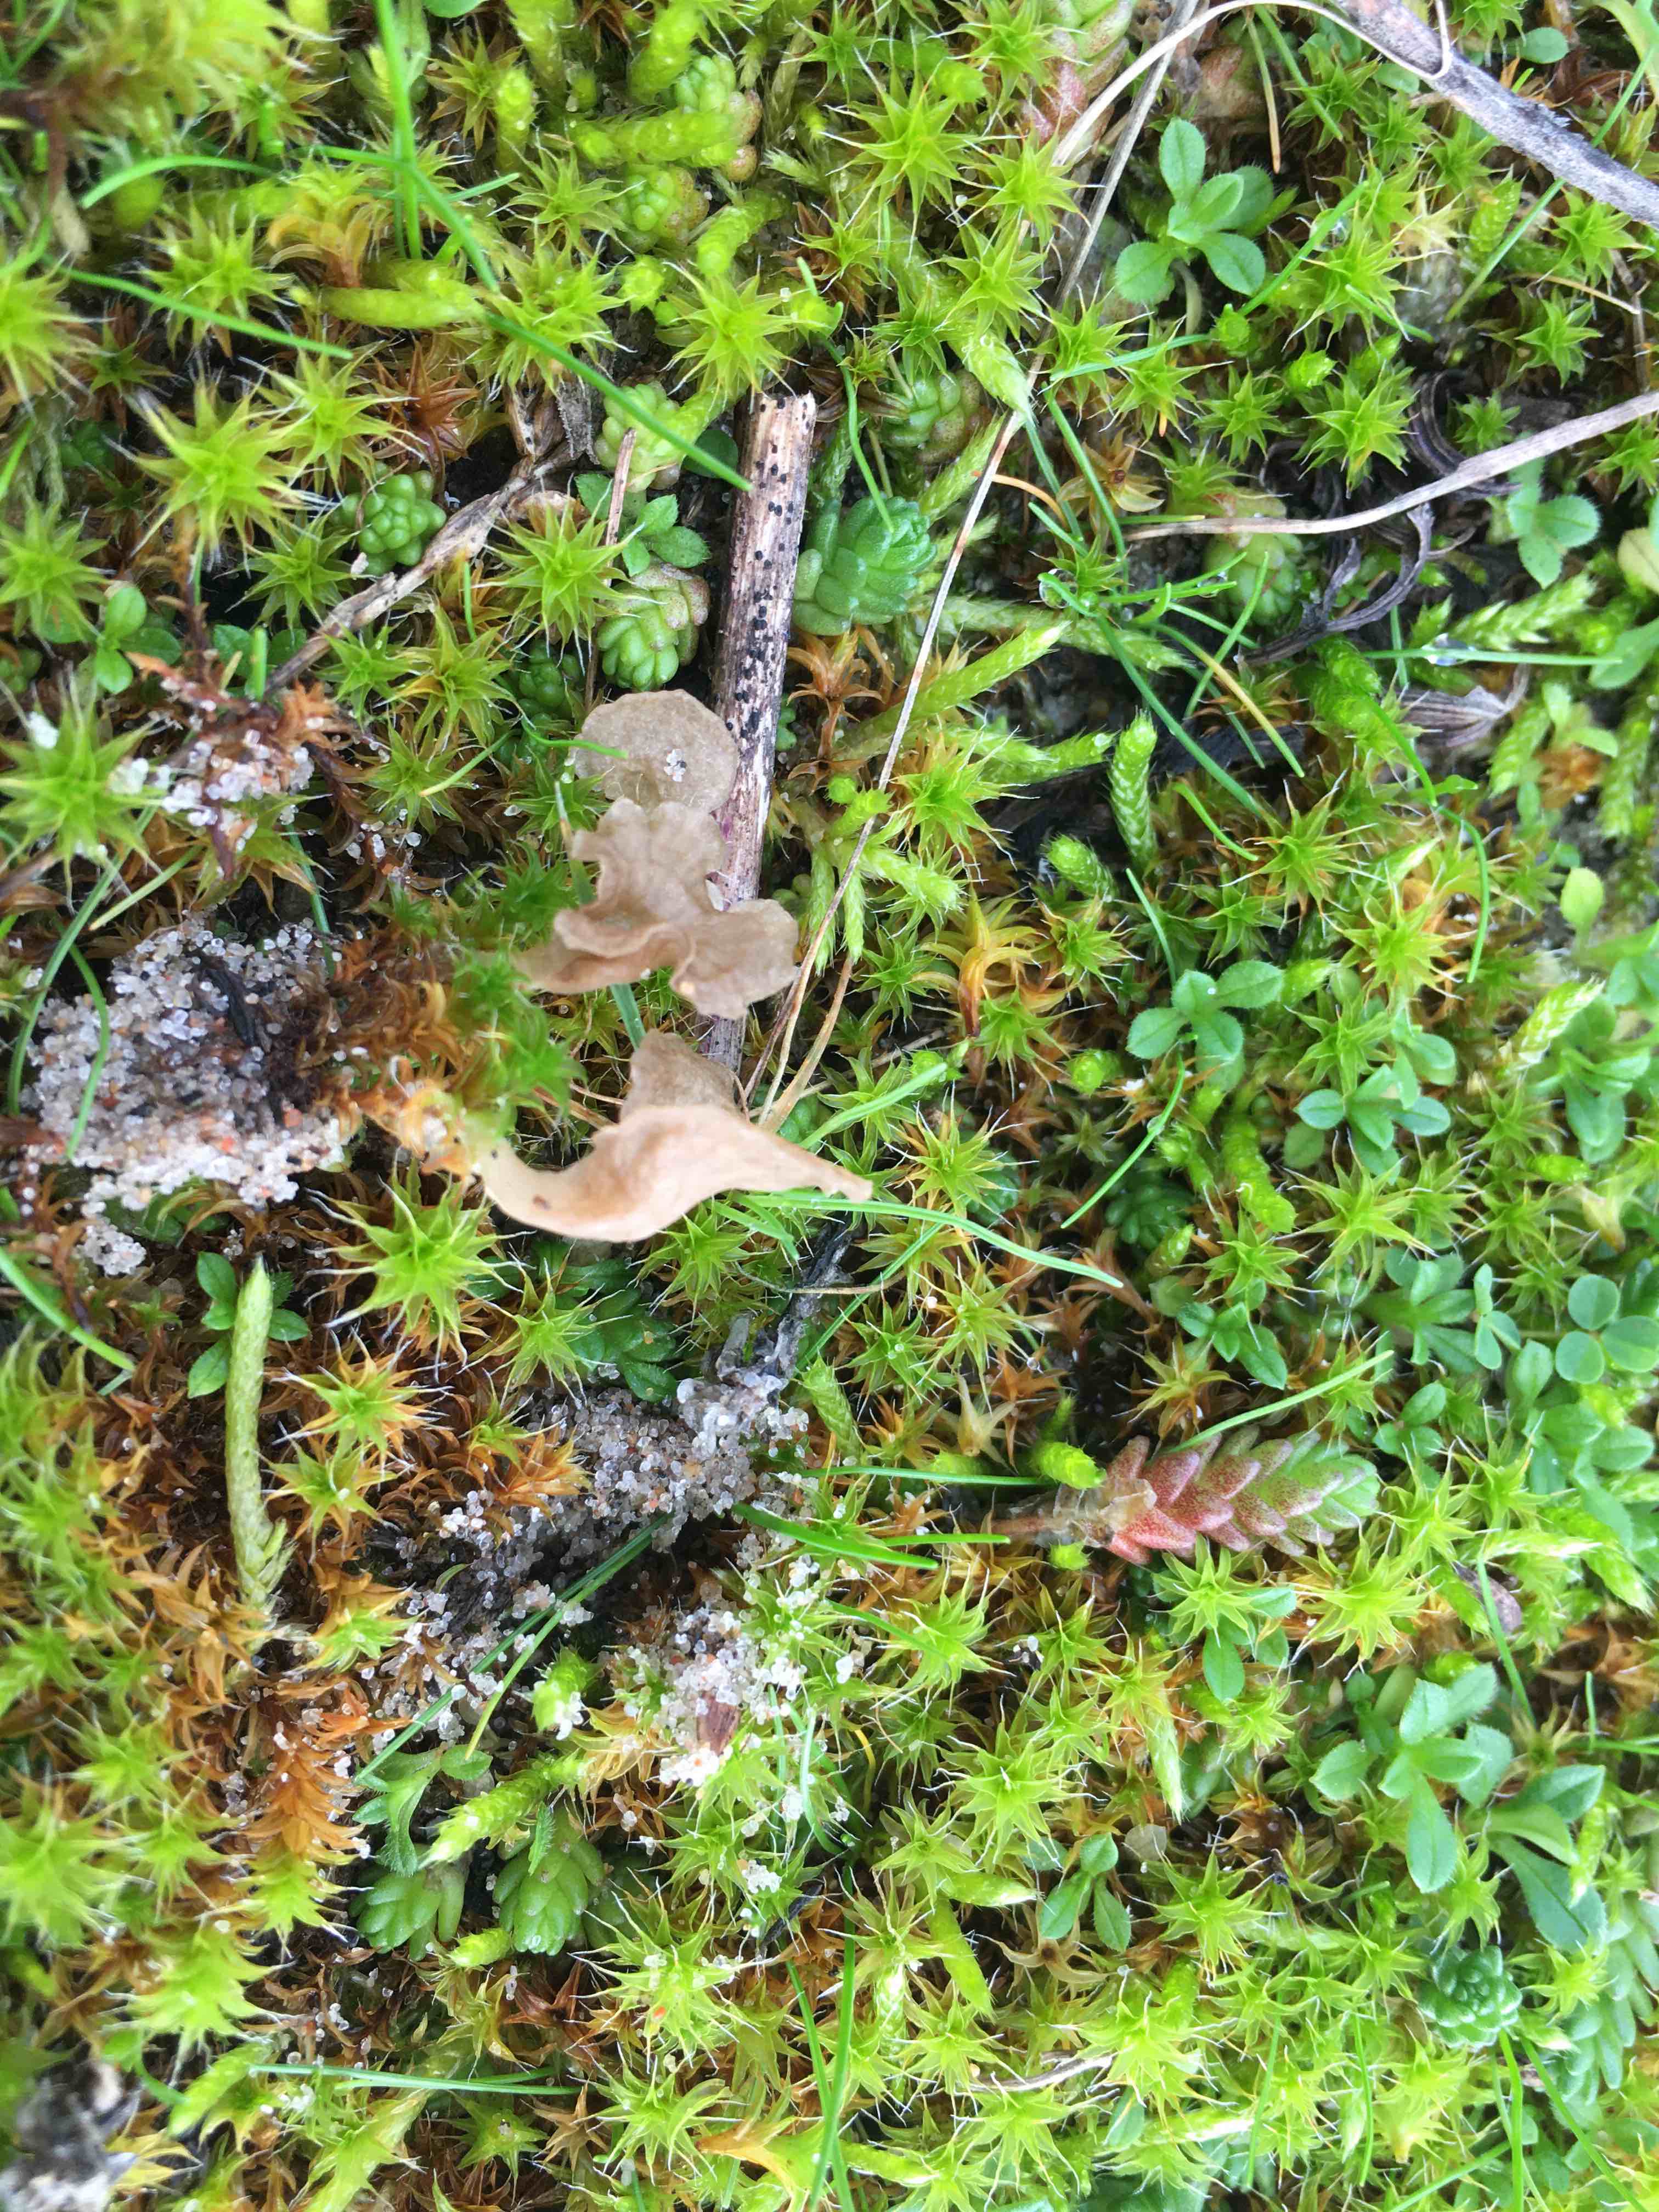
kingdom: Fungi
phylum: Basidiomycota
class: Agaricomycetes
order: Agaricales
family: Hygrophoraceae
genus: Arrhenia
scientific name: Arrhenia spathulata
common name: skæv fontænehat
